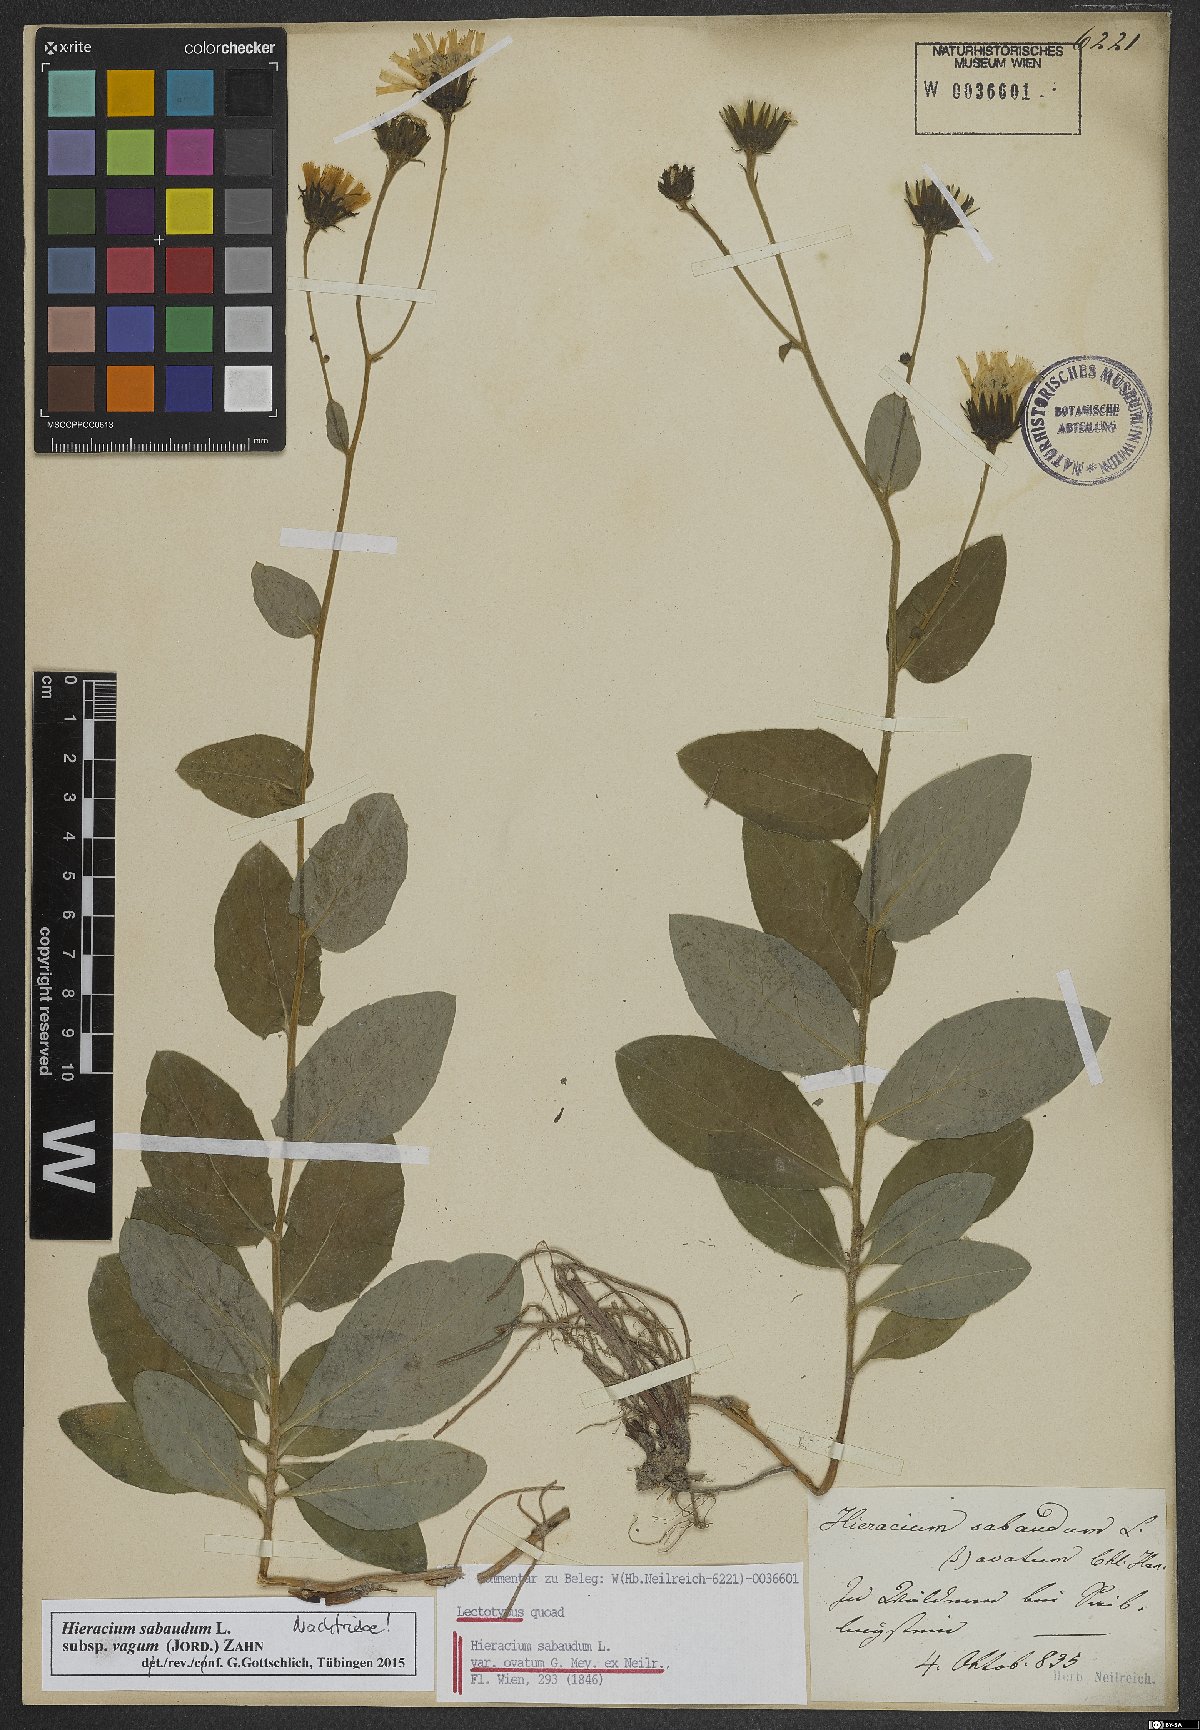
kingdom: Plantae
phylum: Tracheophyta
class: Magnoliopsida
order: Asterales
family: Asteraceae
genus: Hieracium
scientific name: Hieracium sabaudum
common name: New england hawkweed
